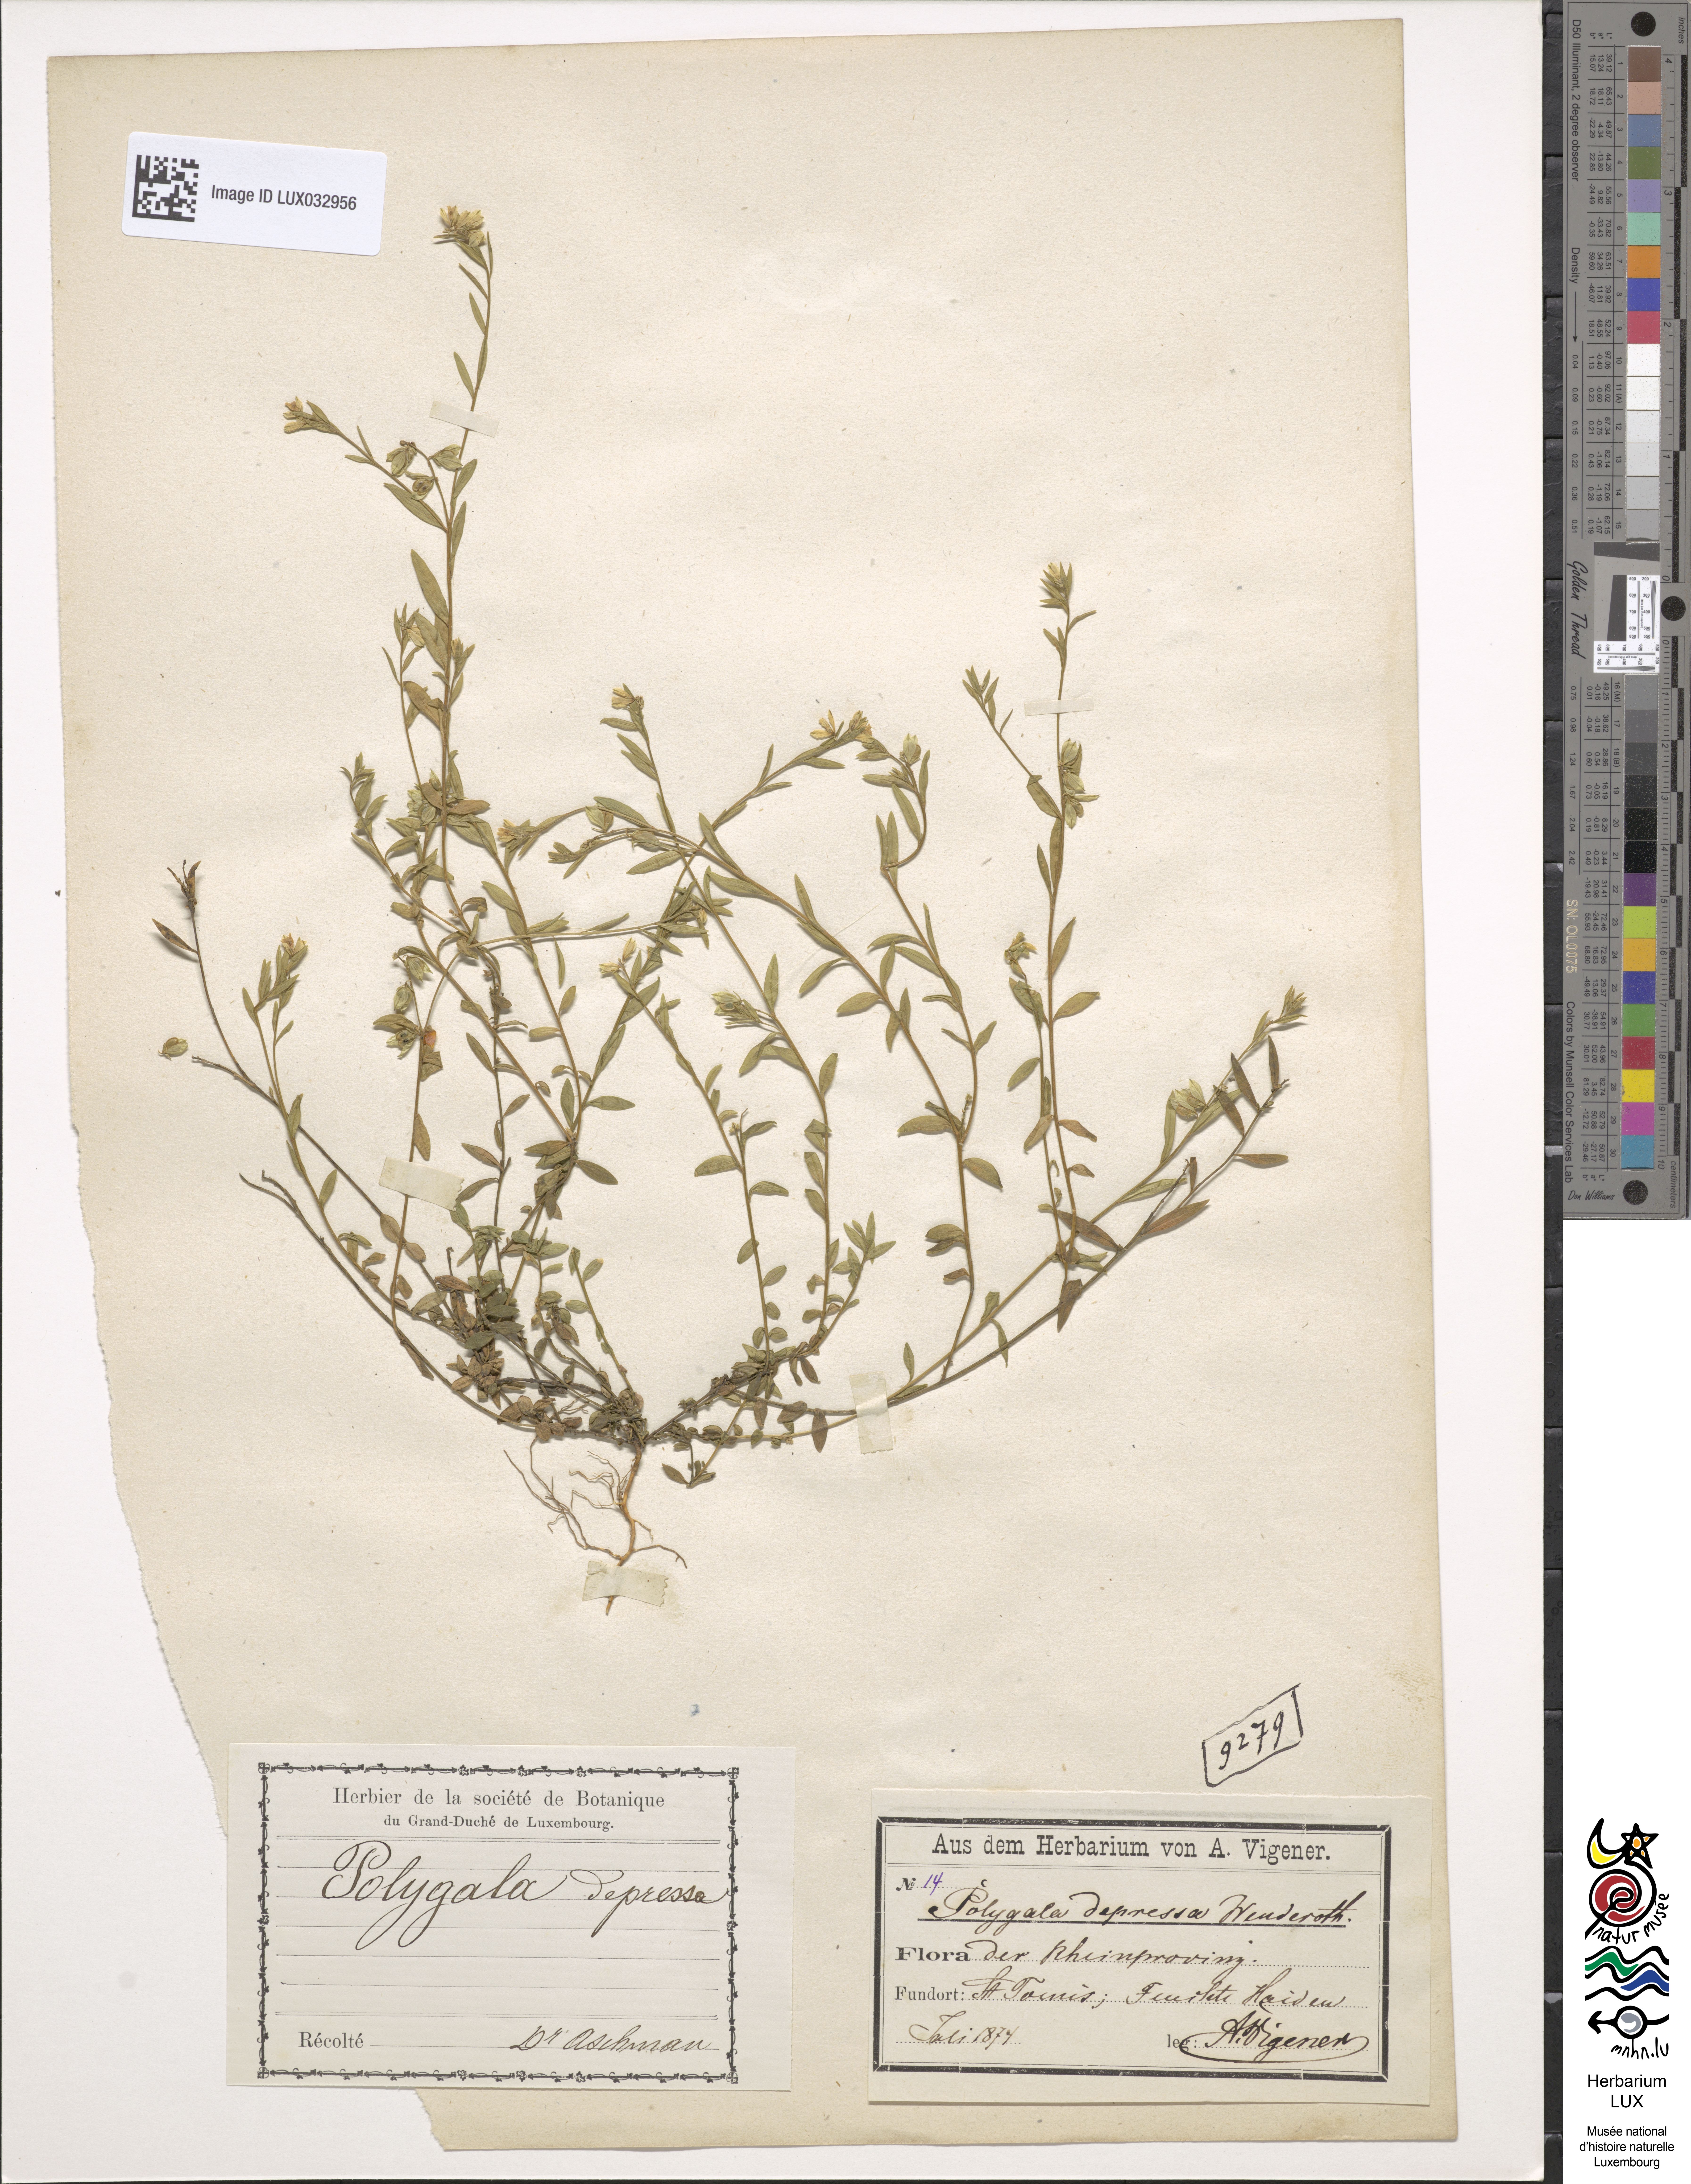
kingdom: Plantae
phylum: Tracheophyta
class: Magnoliopsida
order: Fabales
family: Polygalaceae
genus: Polygala
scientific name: Polygala serpyllifolia
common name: Heath milkwort
